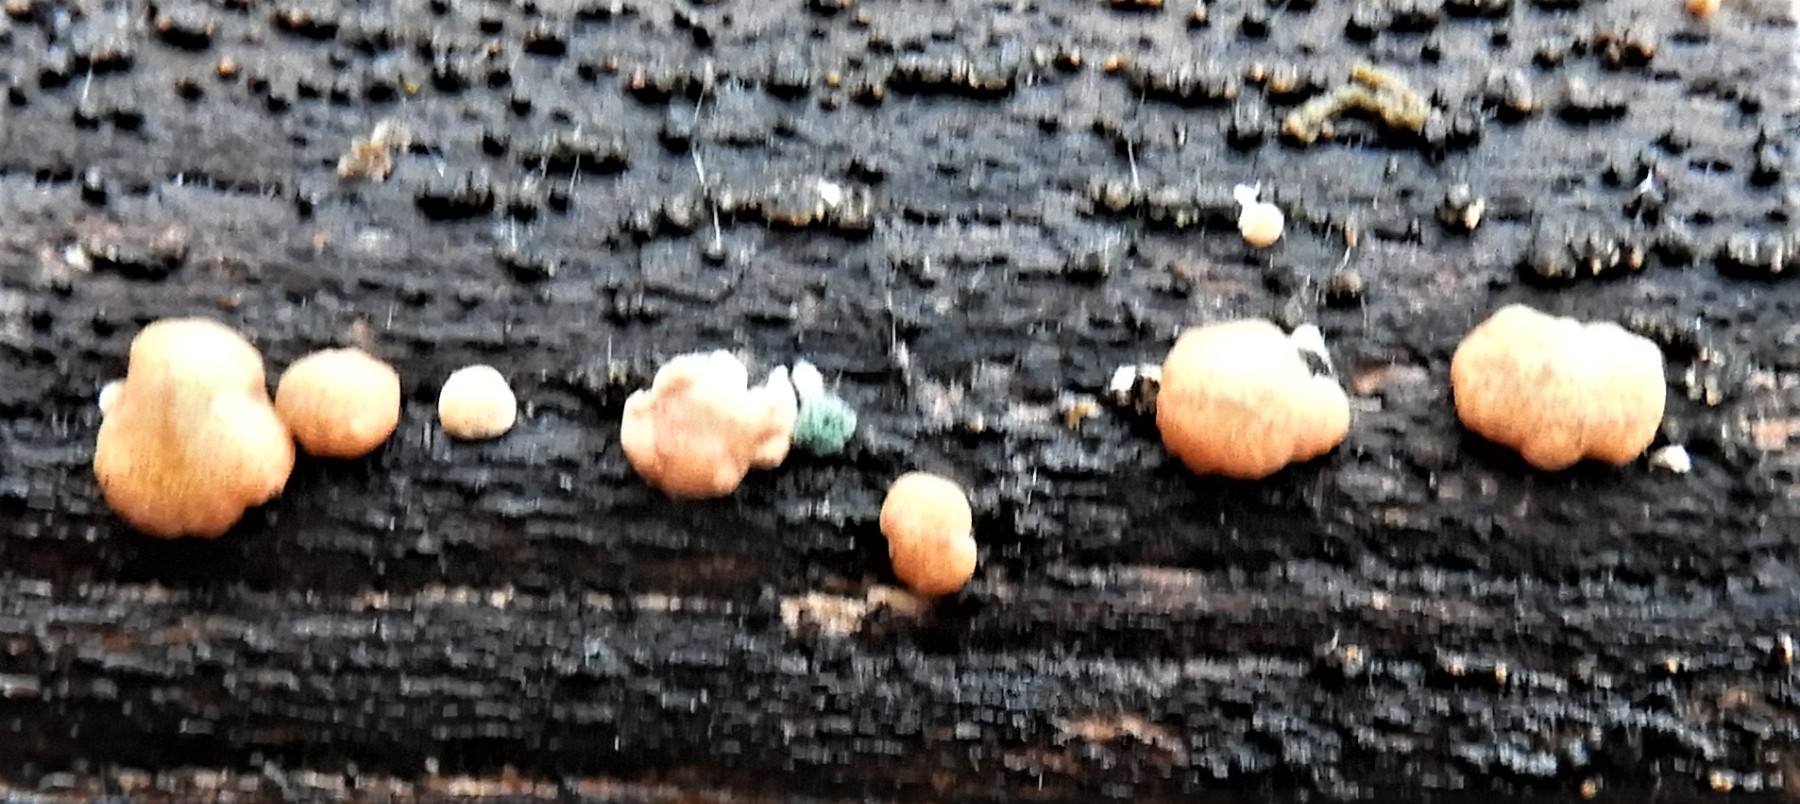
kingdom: Fungi
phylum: Ascomycota
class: Sordariomycetes
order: Hypocreales
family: Hypocreaceae
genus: Trichoderma
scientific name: Trichoderma europaeum
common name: rosabrun kødkerne
